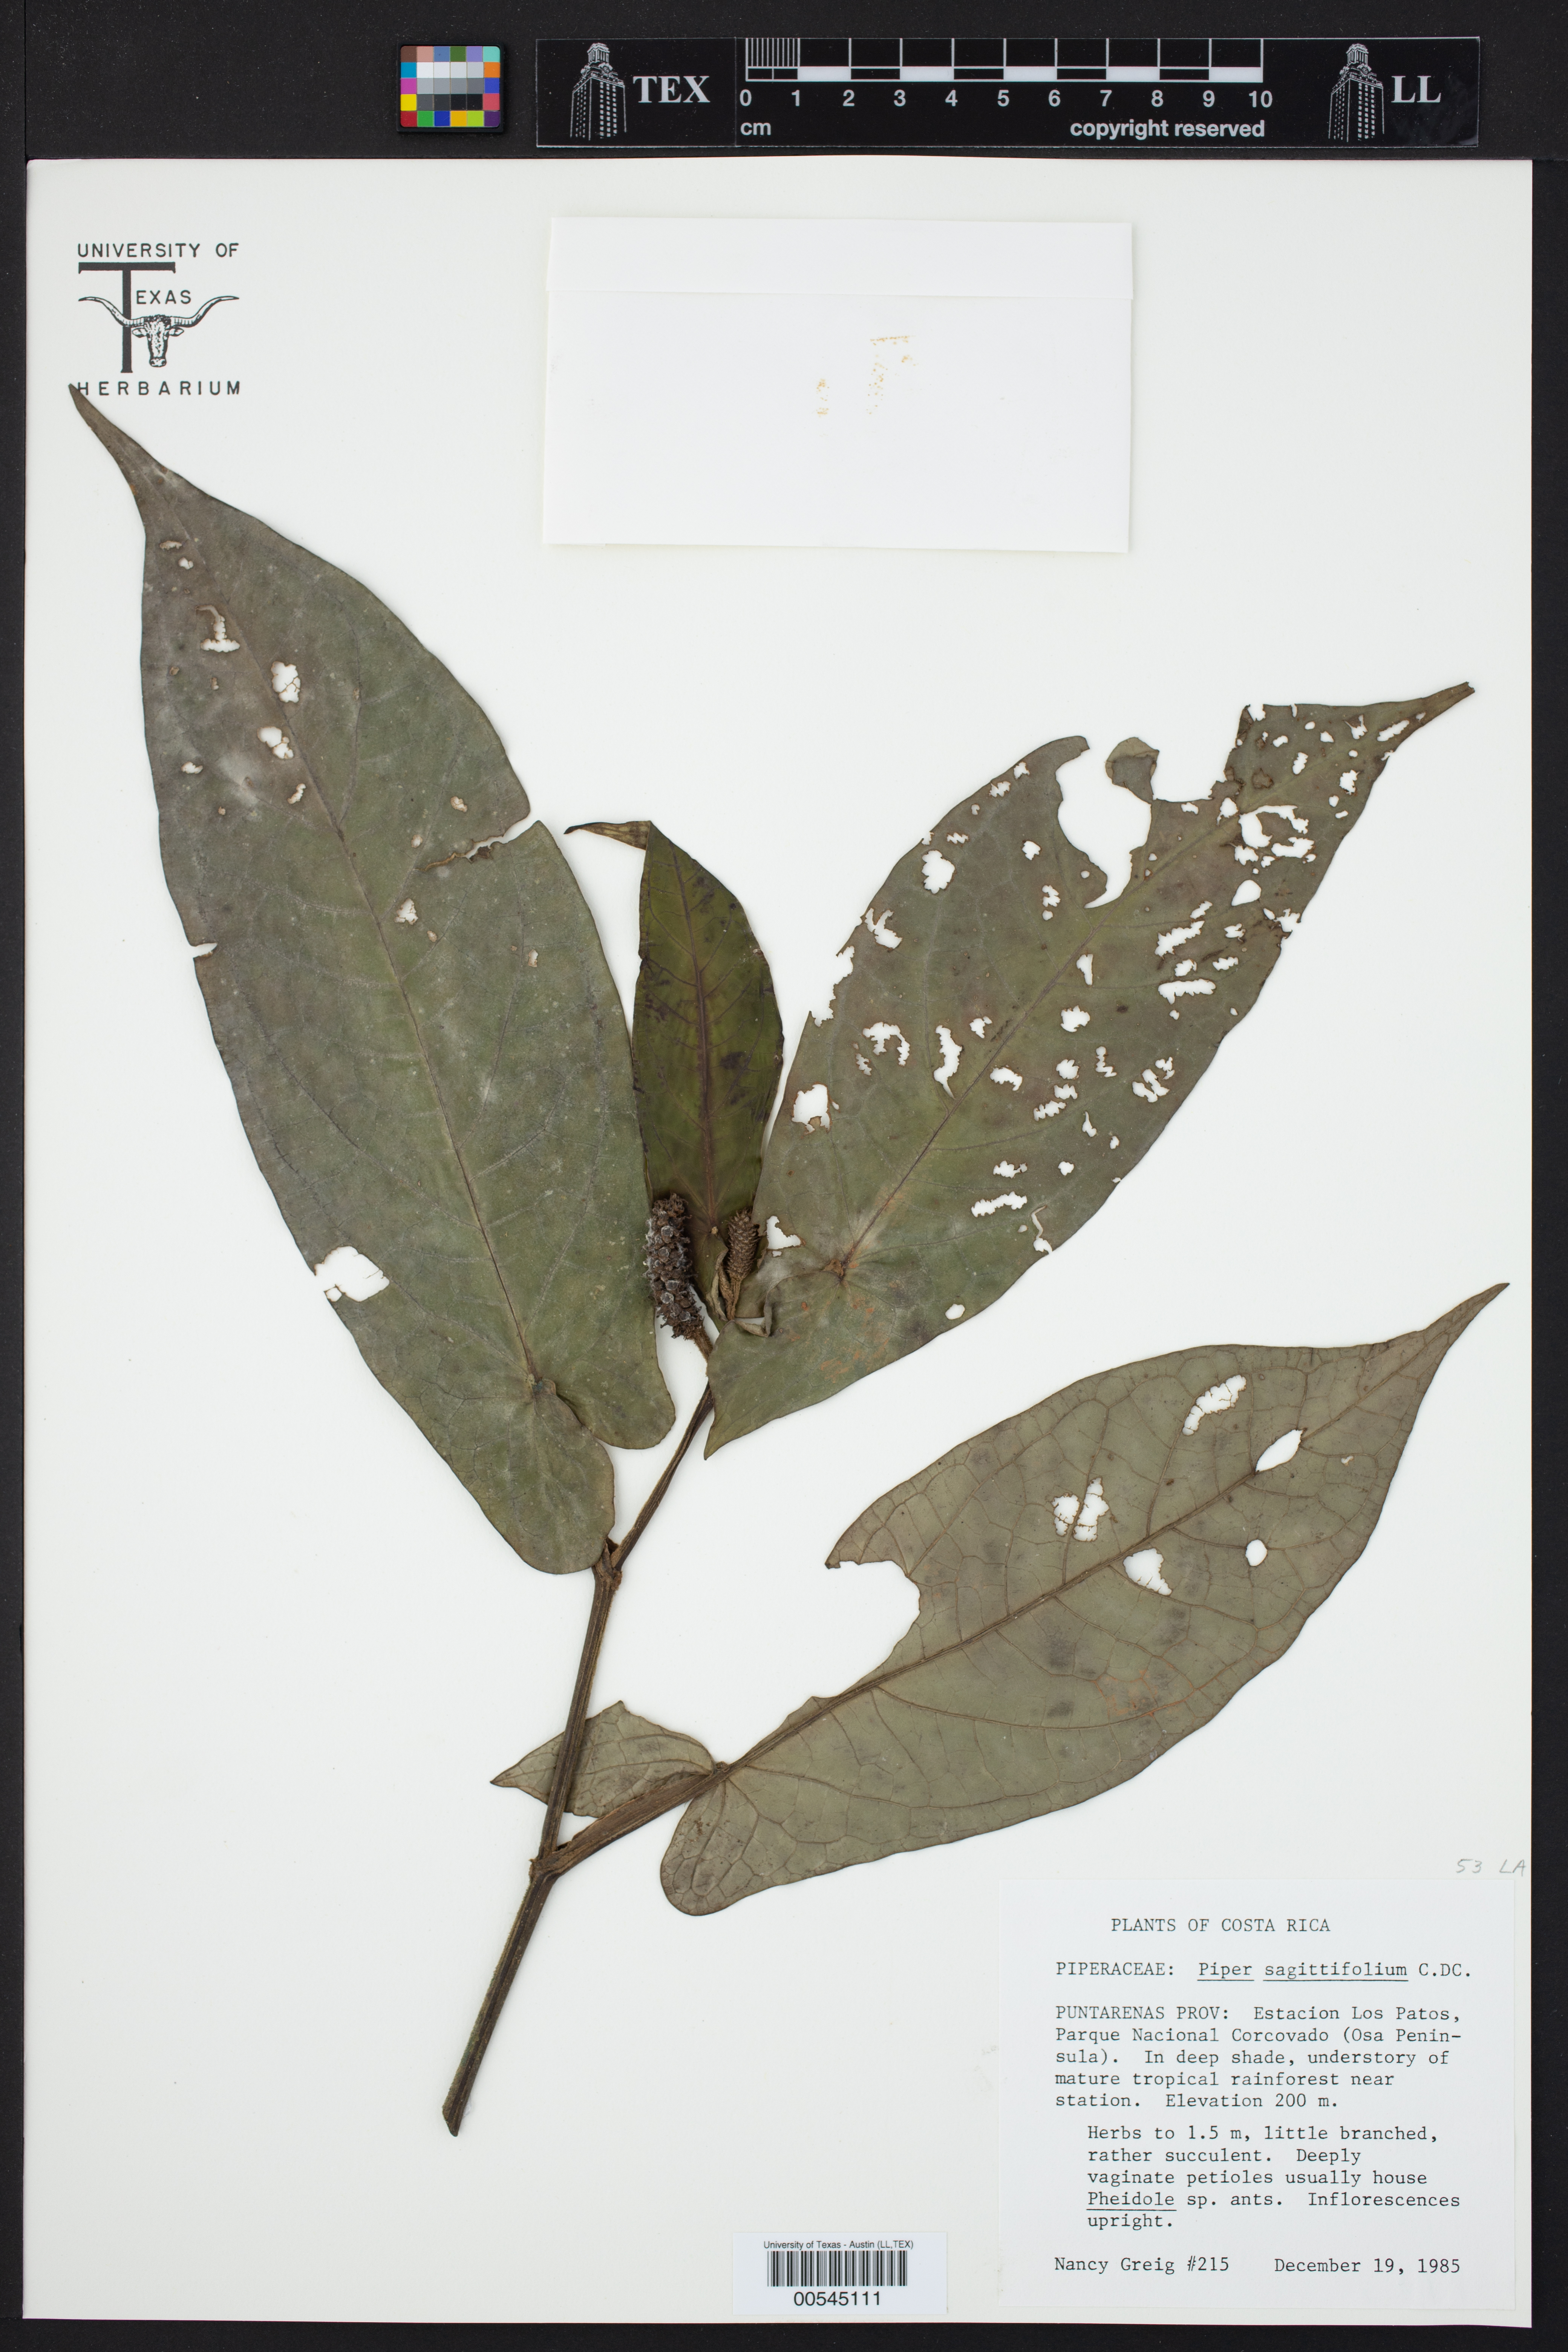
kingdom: Plantae
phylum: Tracheophyta
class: Magnoliopsida
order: Piperales
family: Piperaceae
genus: Piper
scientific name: Piper sagittifolium
